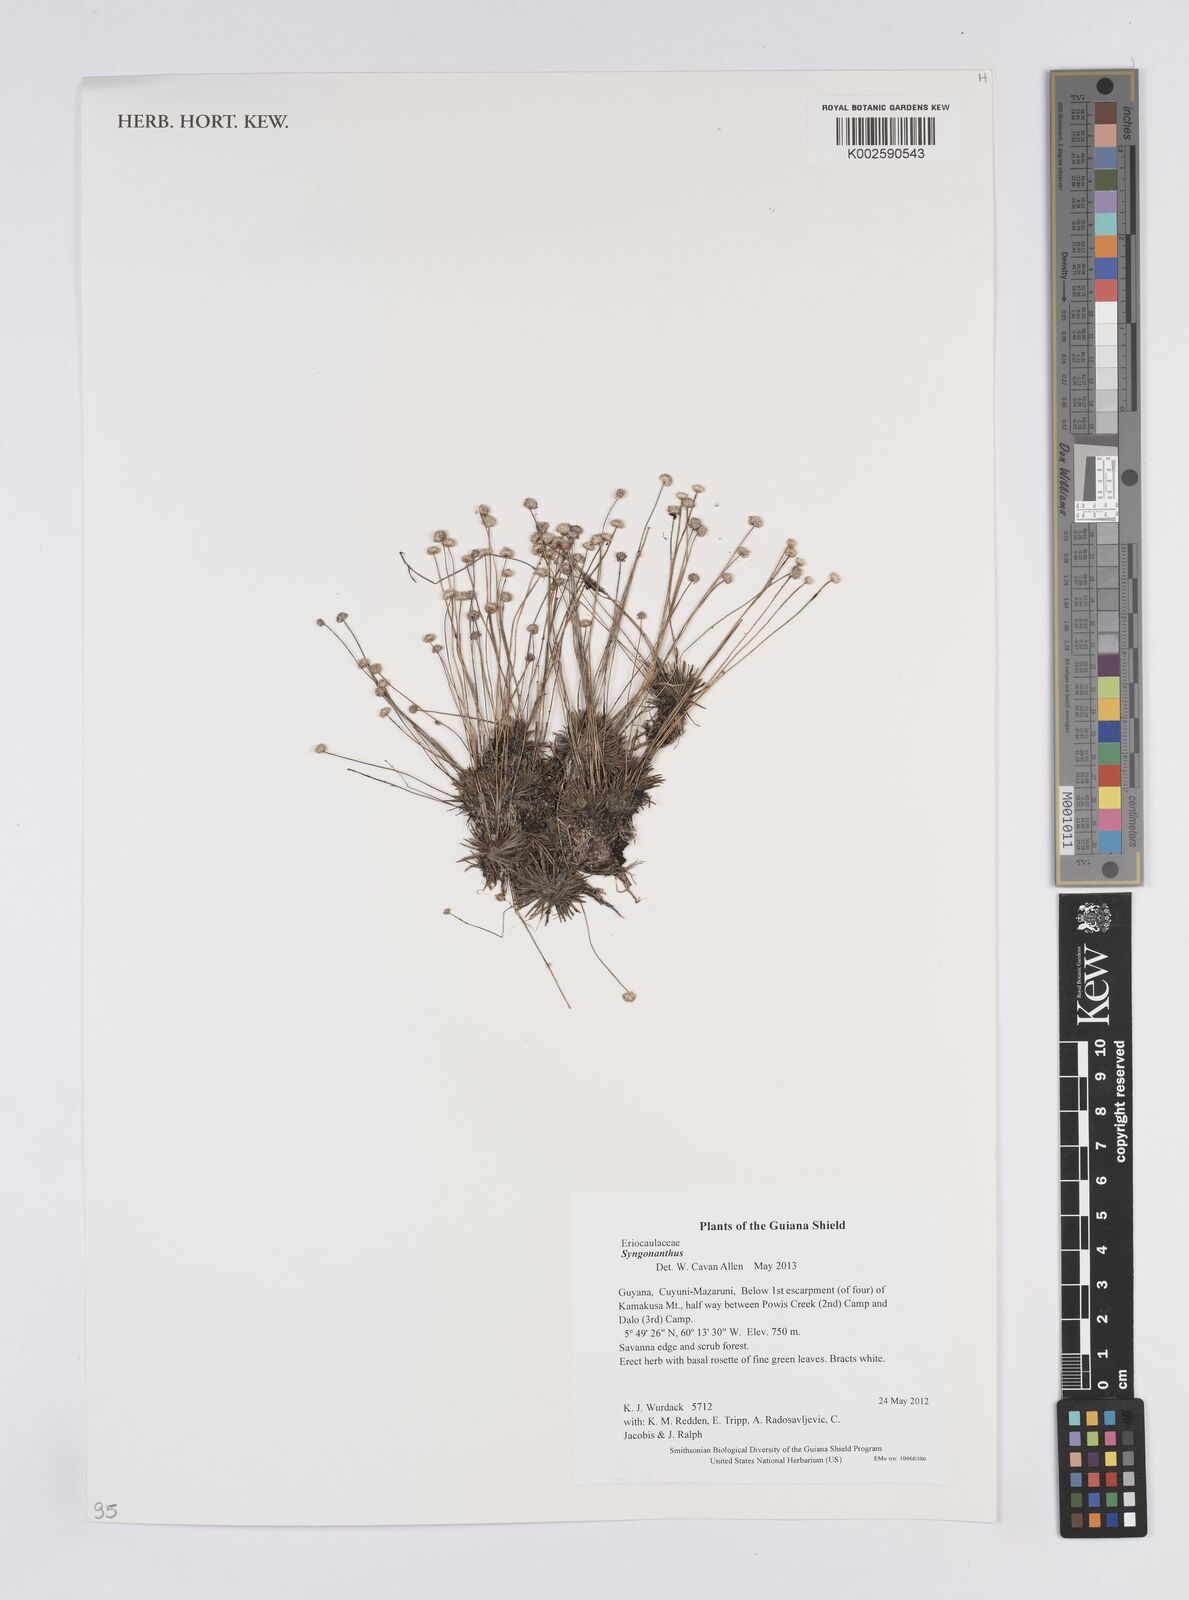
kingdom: Plantae
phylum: Tracheophyta
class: Liliopsida
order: Poales
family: Eriocaulaceae
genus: Syngonanthus
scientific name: Syngonanthus
